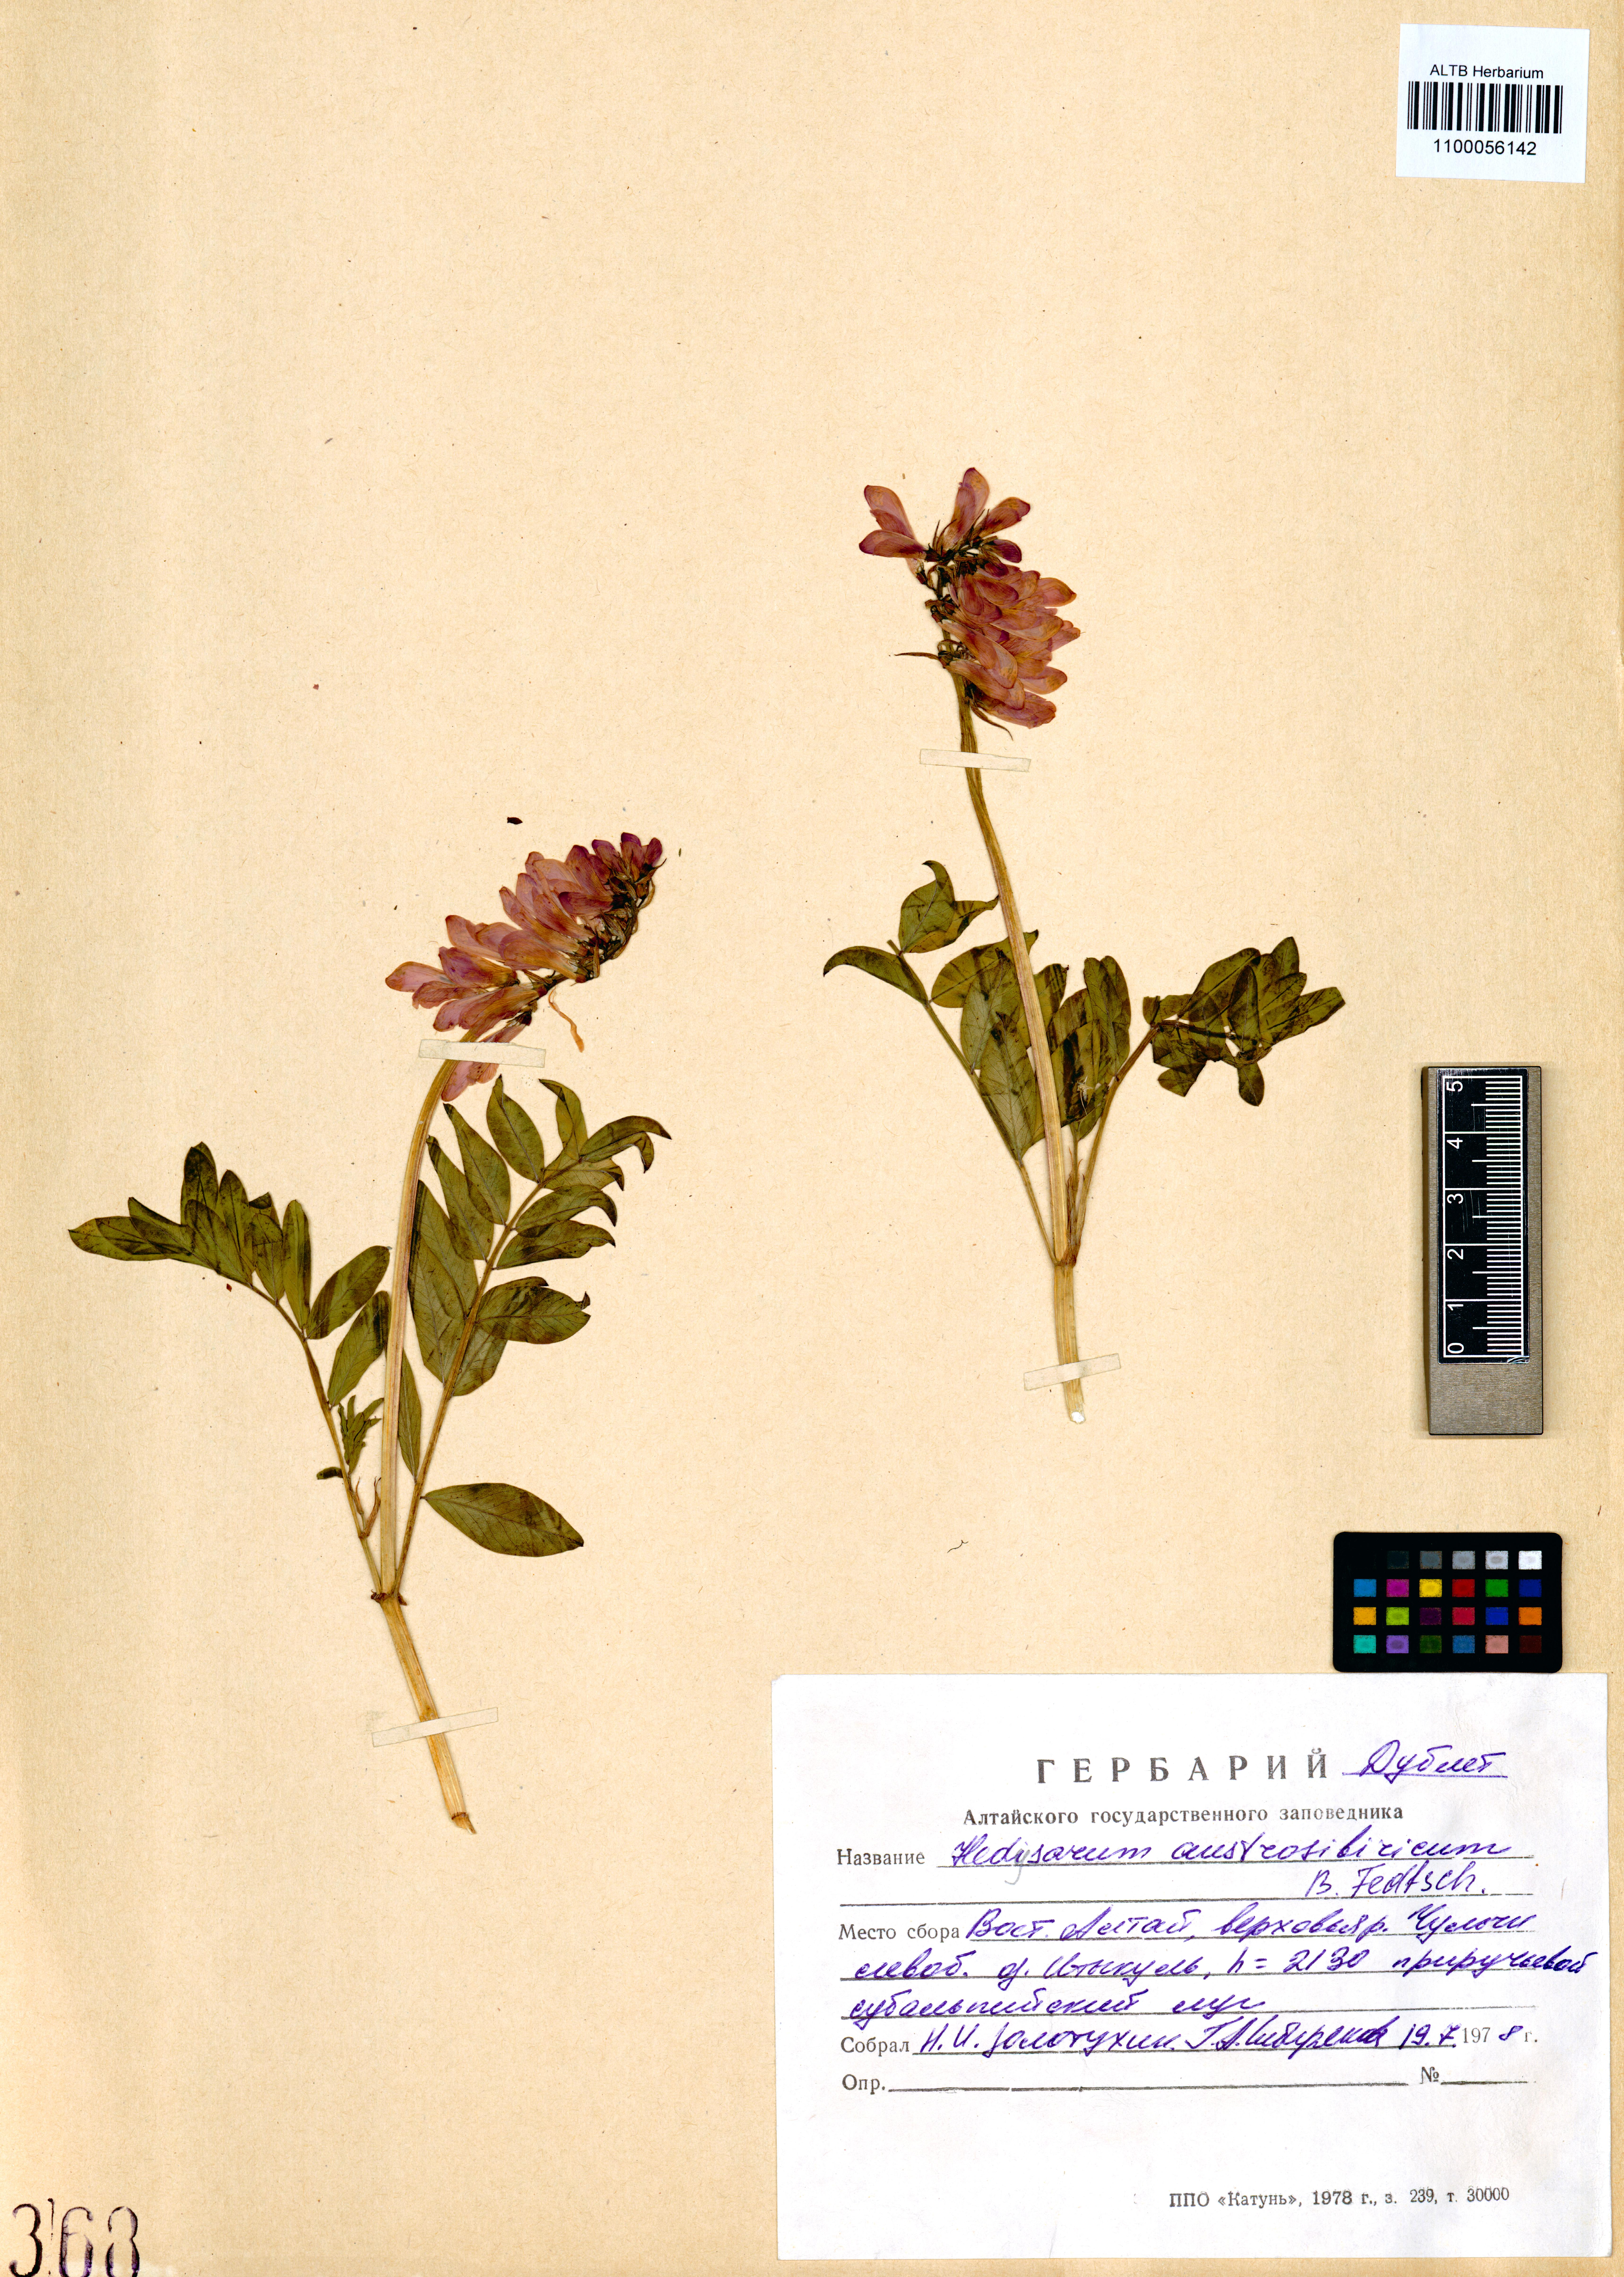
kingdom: Plantae
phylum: Tracheophyta
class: Magnoliopsida
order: Fabales
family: Fabaceae
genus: Hedysarum
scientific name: Hedysarum neglectum
